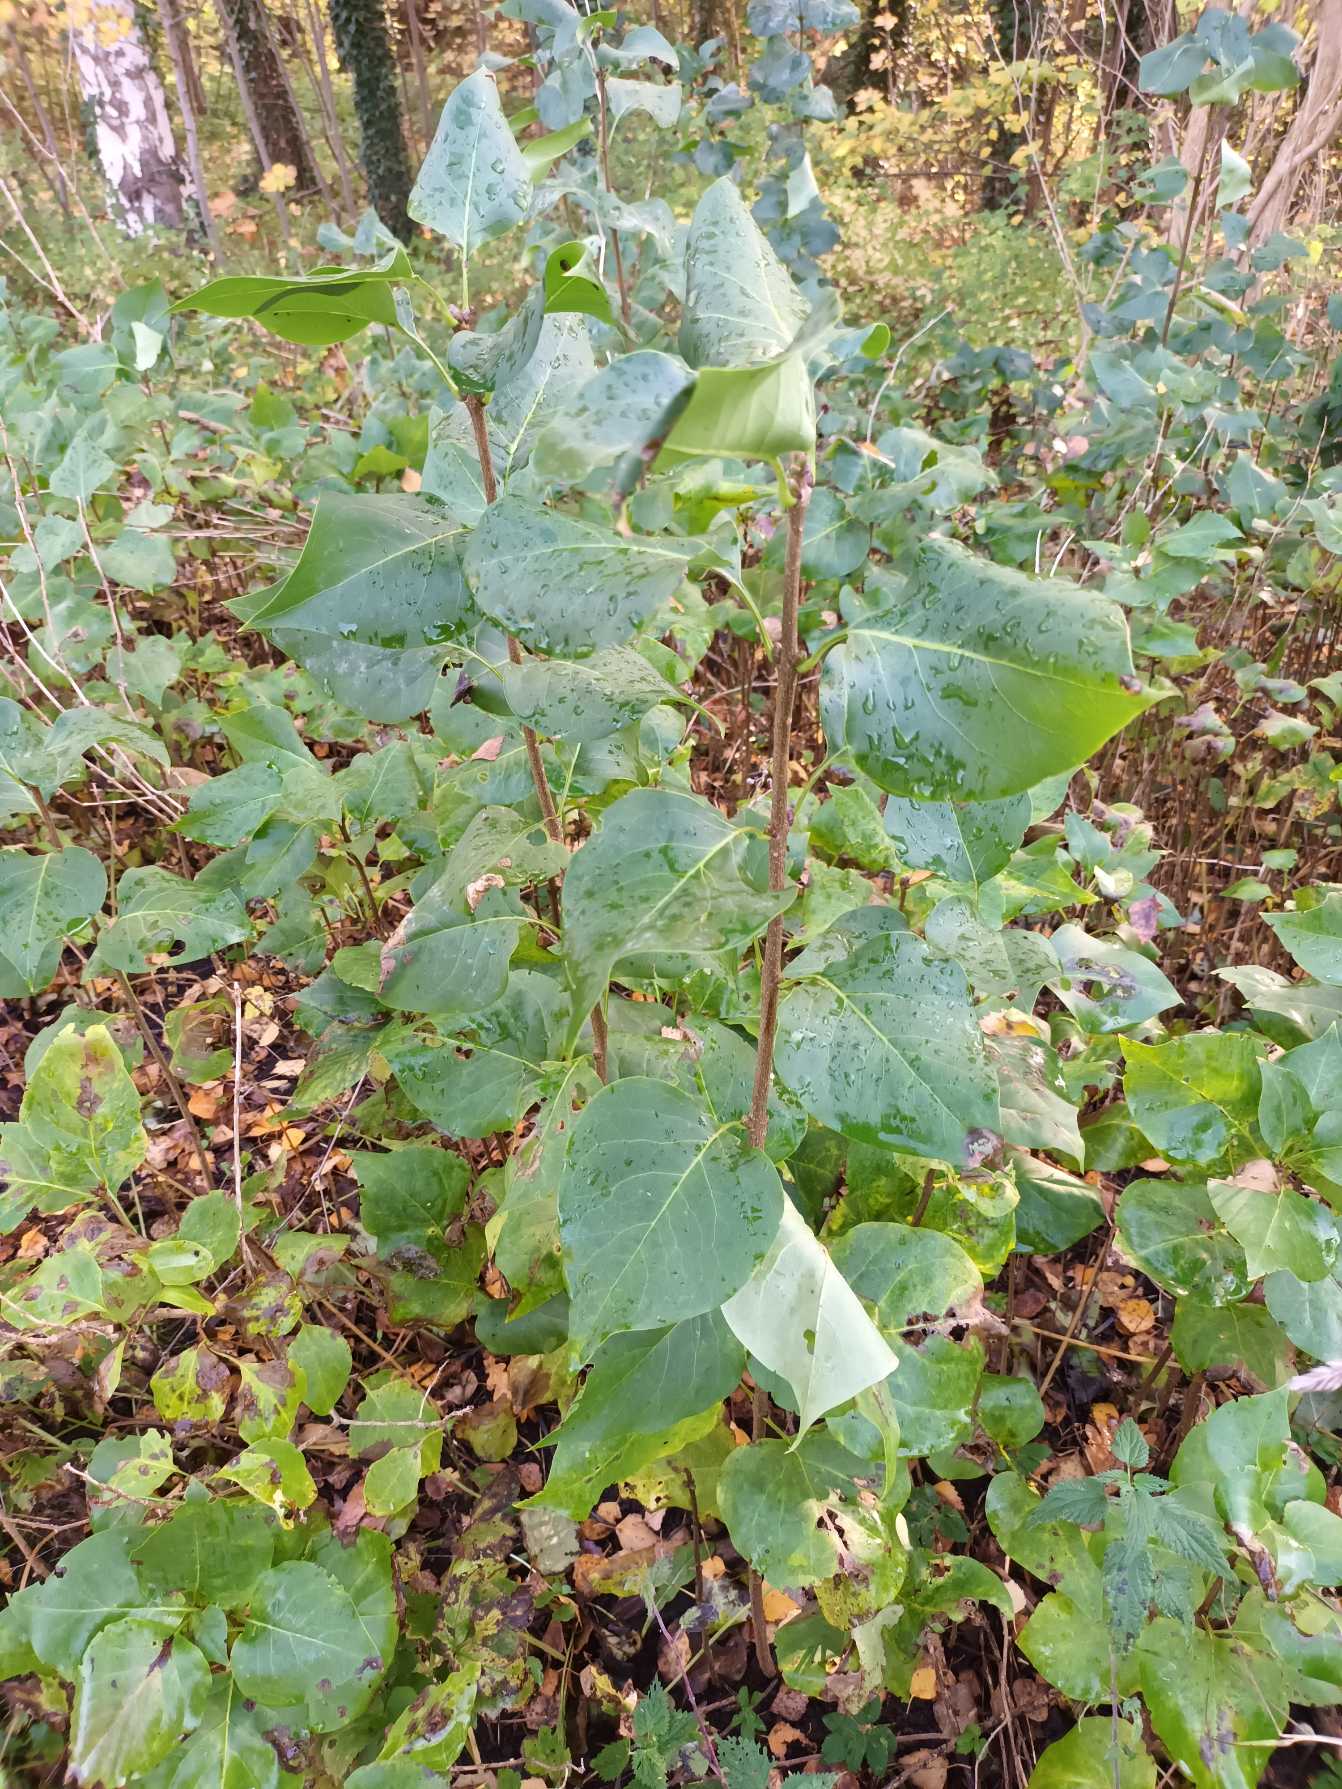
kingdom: Plantae
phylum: Tracheophyta
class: Magnoliopsida
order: Lamiales
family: Oleaceae
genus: Syringa
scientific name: Syringa vulgaris
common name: Syren
